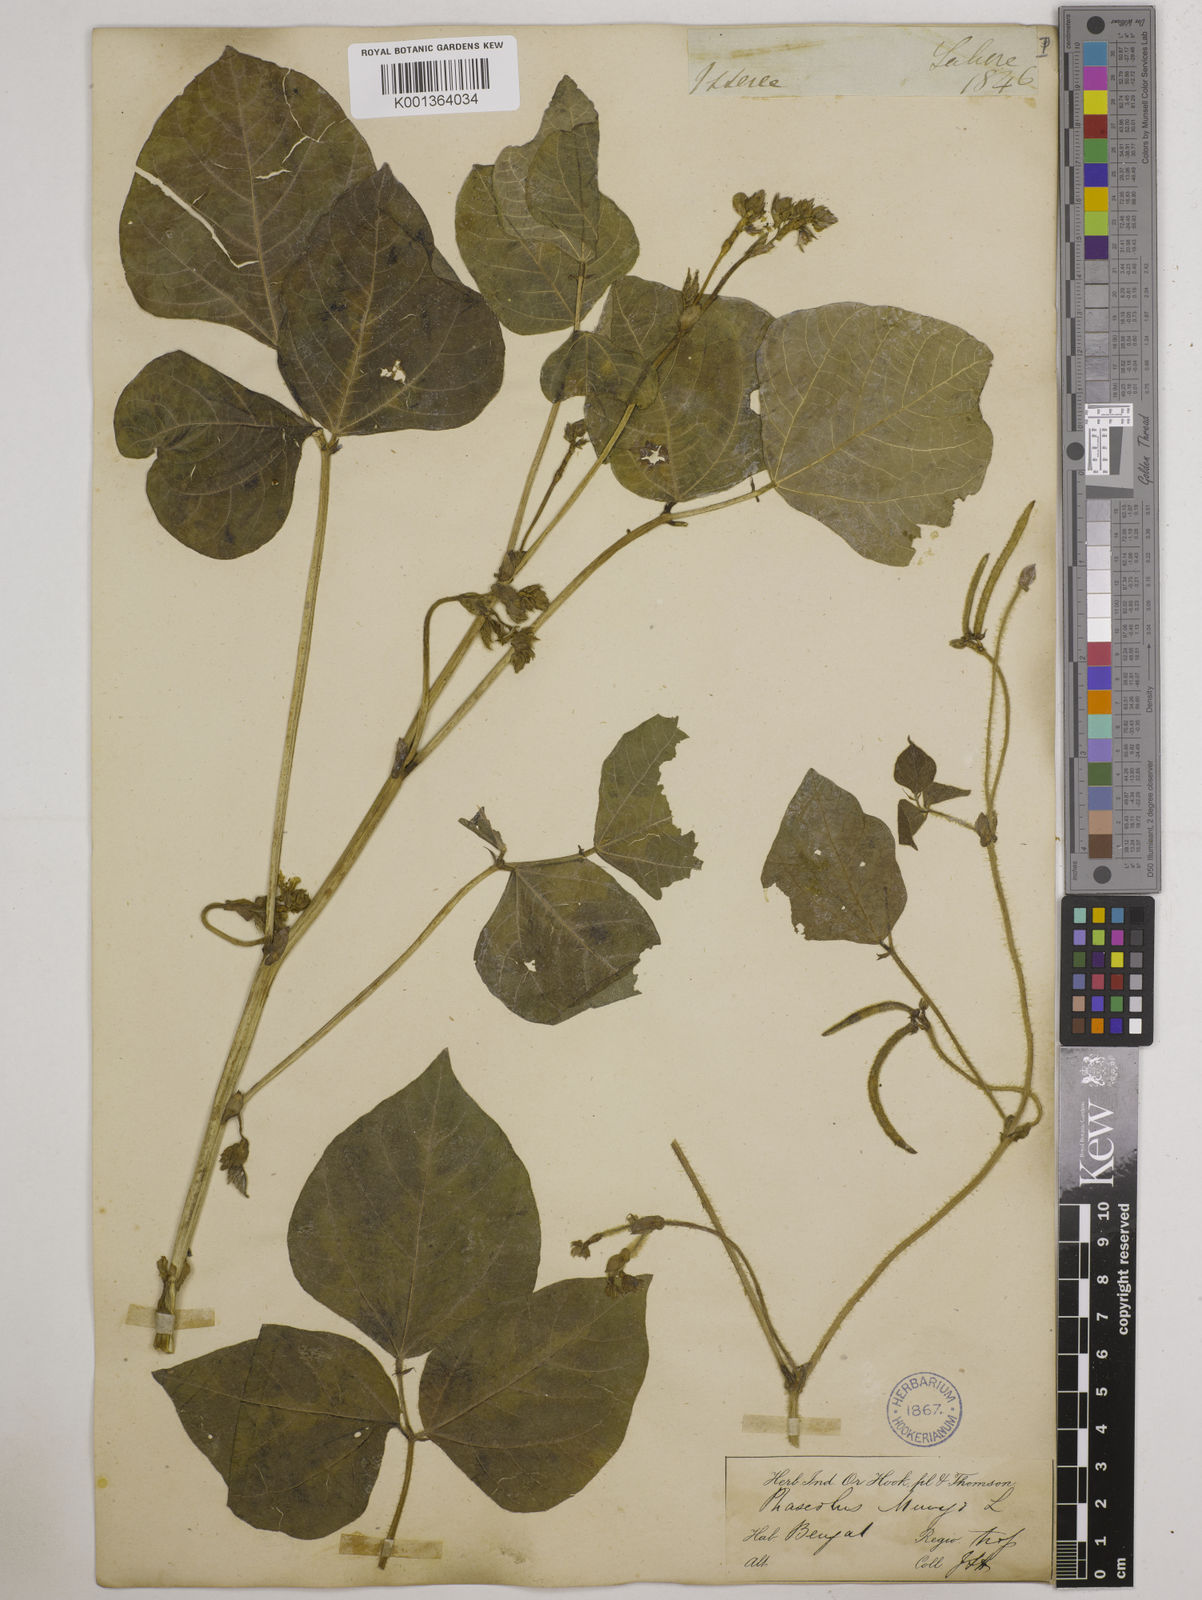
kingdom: Plantae
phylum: Tracheophyta
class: Magnoliopsida
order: Fabales
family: Fabaceae
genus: Vigna
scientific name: Vigna radiata
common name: Mung-bean
